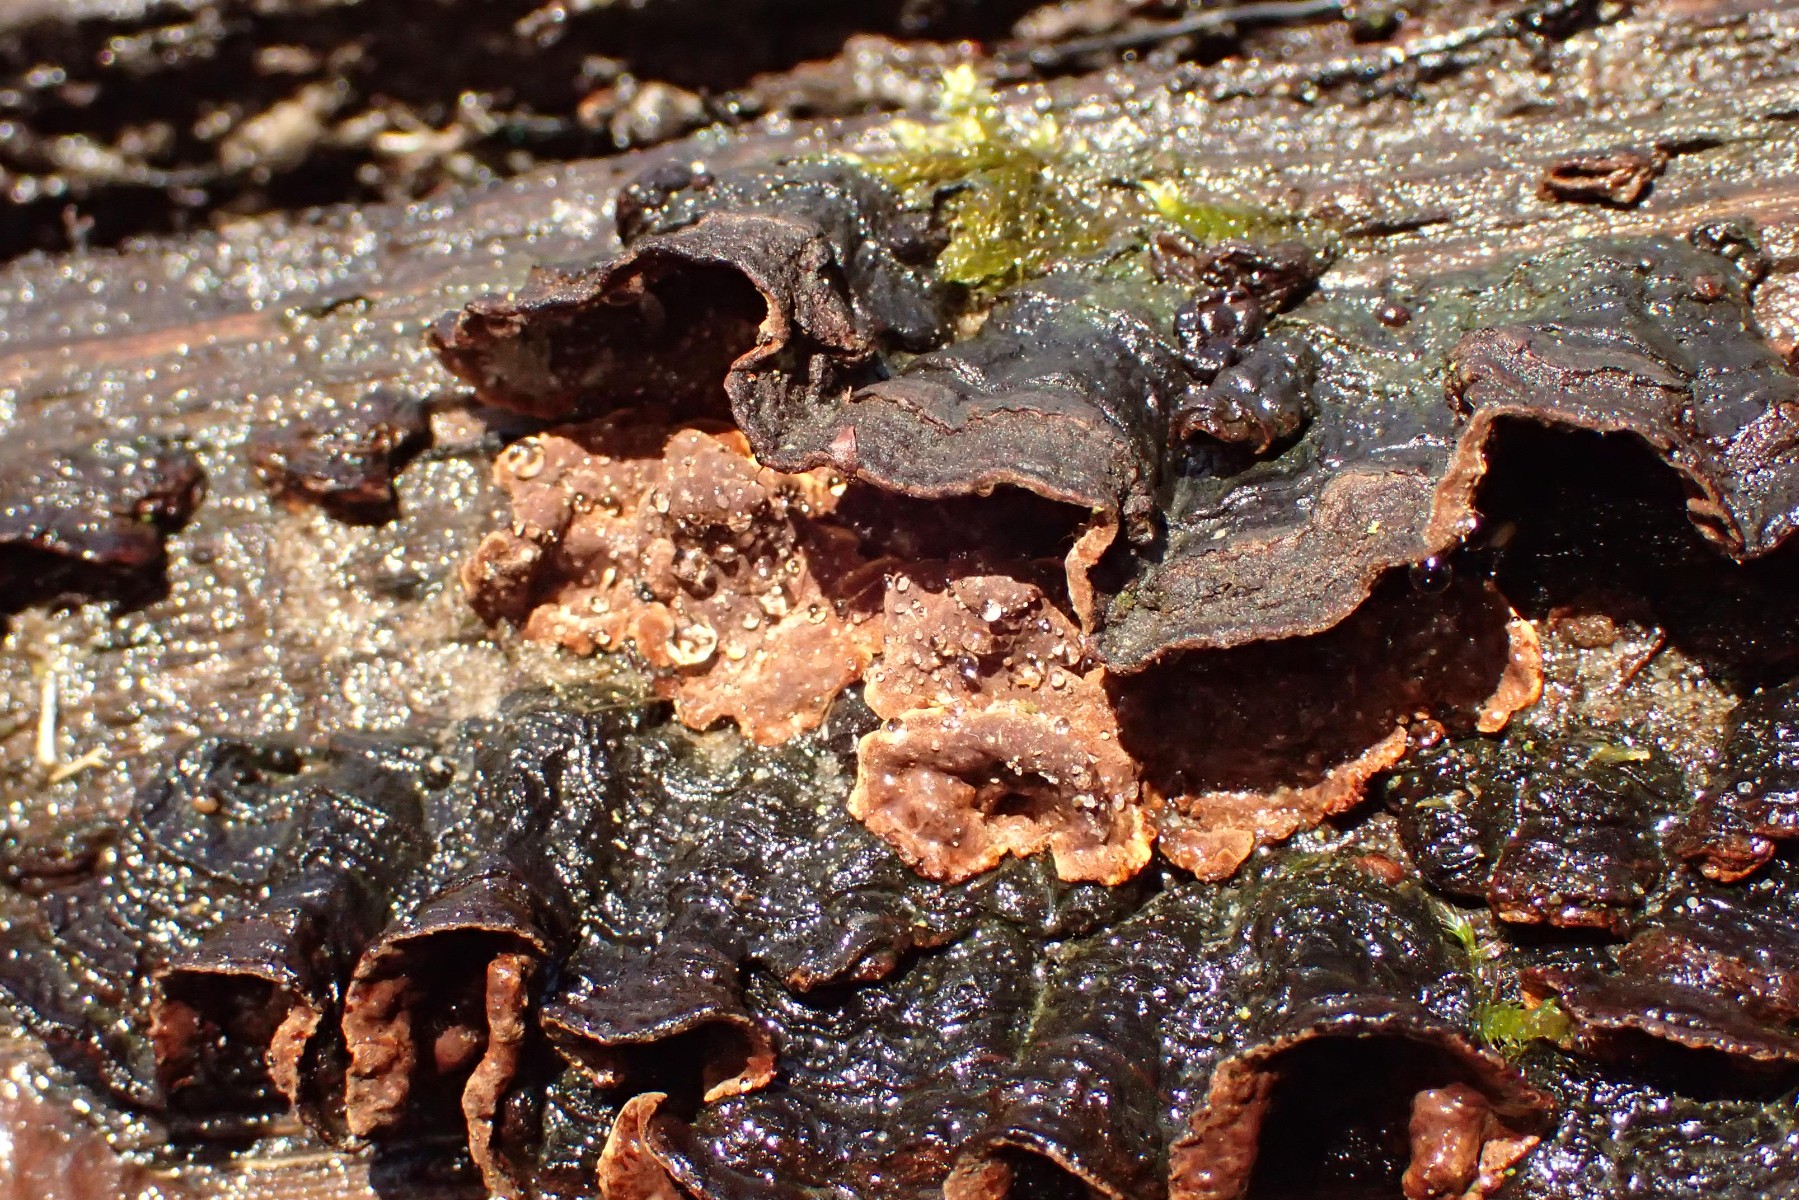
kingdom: Fungi
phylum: Basidiomycota
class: Agaricomycetes
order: Hymenochaetales
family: Hymenochaetaceae
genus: Hymenochaete
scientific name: Hymenochaete rubiginosa
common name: stiv ruslædersvamp
